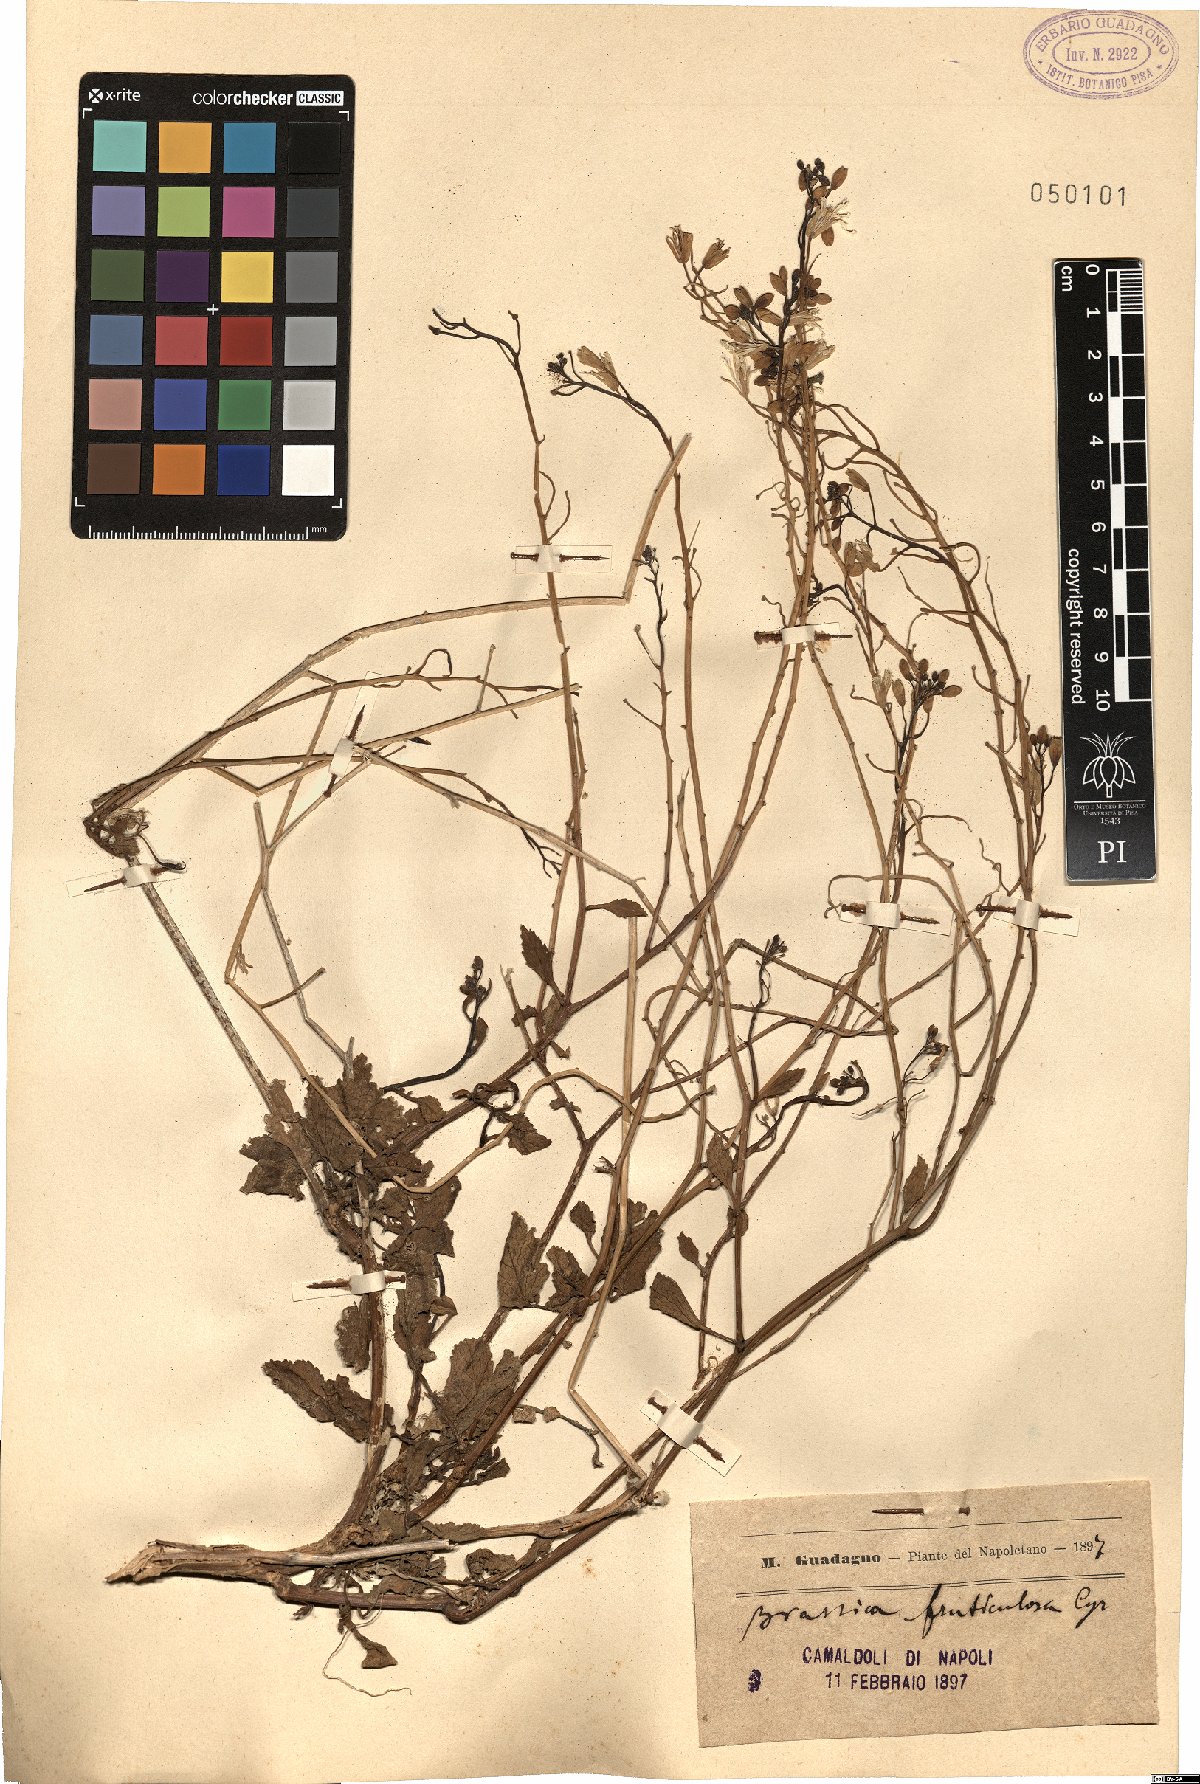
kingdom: Plantae
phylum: Tracheophyta
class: Magnoliopsida
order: Brassicales
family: Brassicaceae
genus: Brassica
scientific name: Brassica fruticulosa
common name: Twiggy turnip
